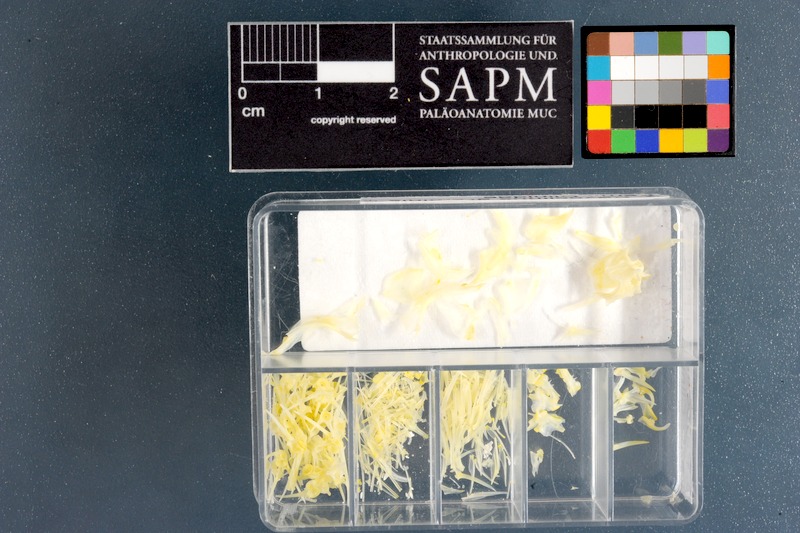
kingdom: Animalia
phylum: Chordata
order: Perciformes
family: Clinidae
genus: Pavoclinus
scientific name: Pavoclinus graminis
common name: Grass klipfish
